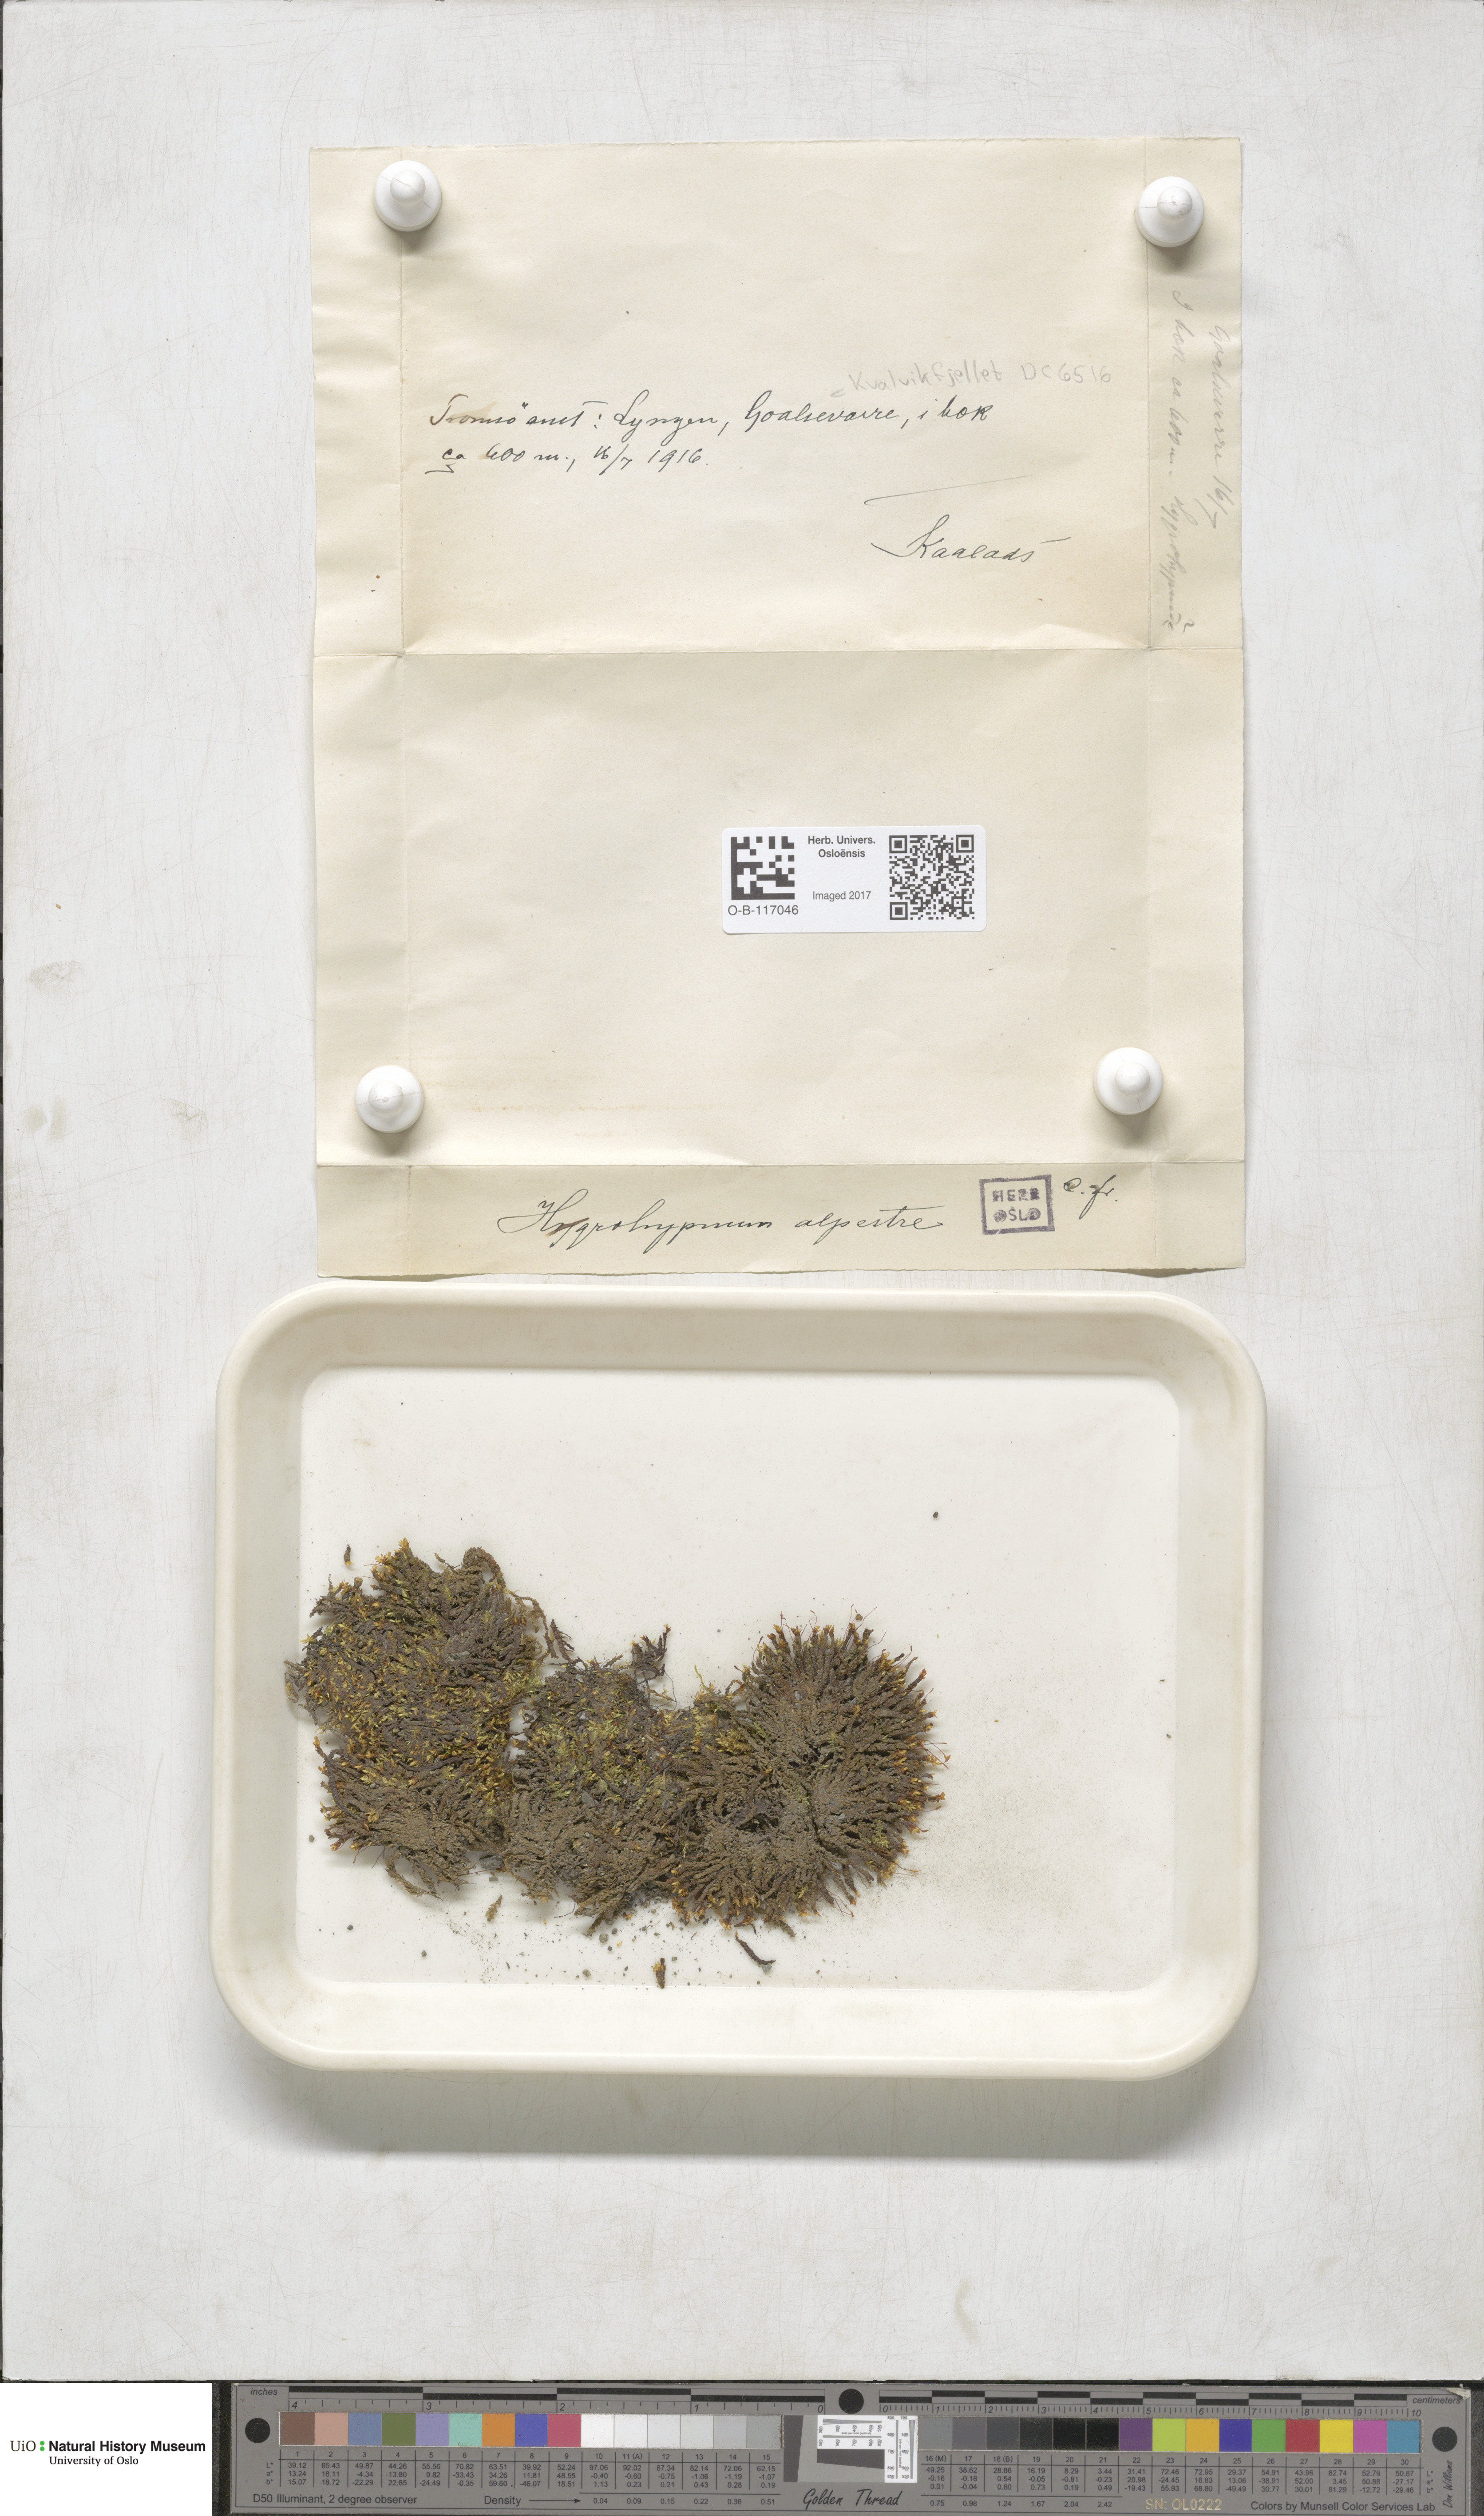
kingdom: Plantae
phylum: Bryophyta
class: Bryopsida
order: Hypnales
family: Amblystegiaceae
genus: Platyhypnum
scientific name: Platyhypnum alpestre
